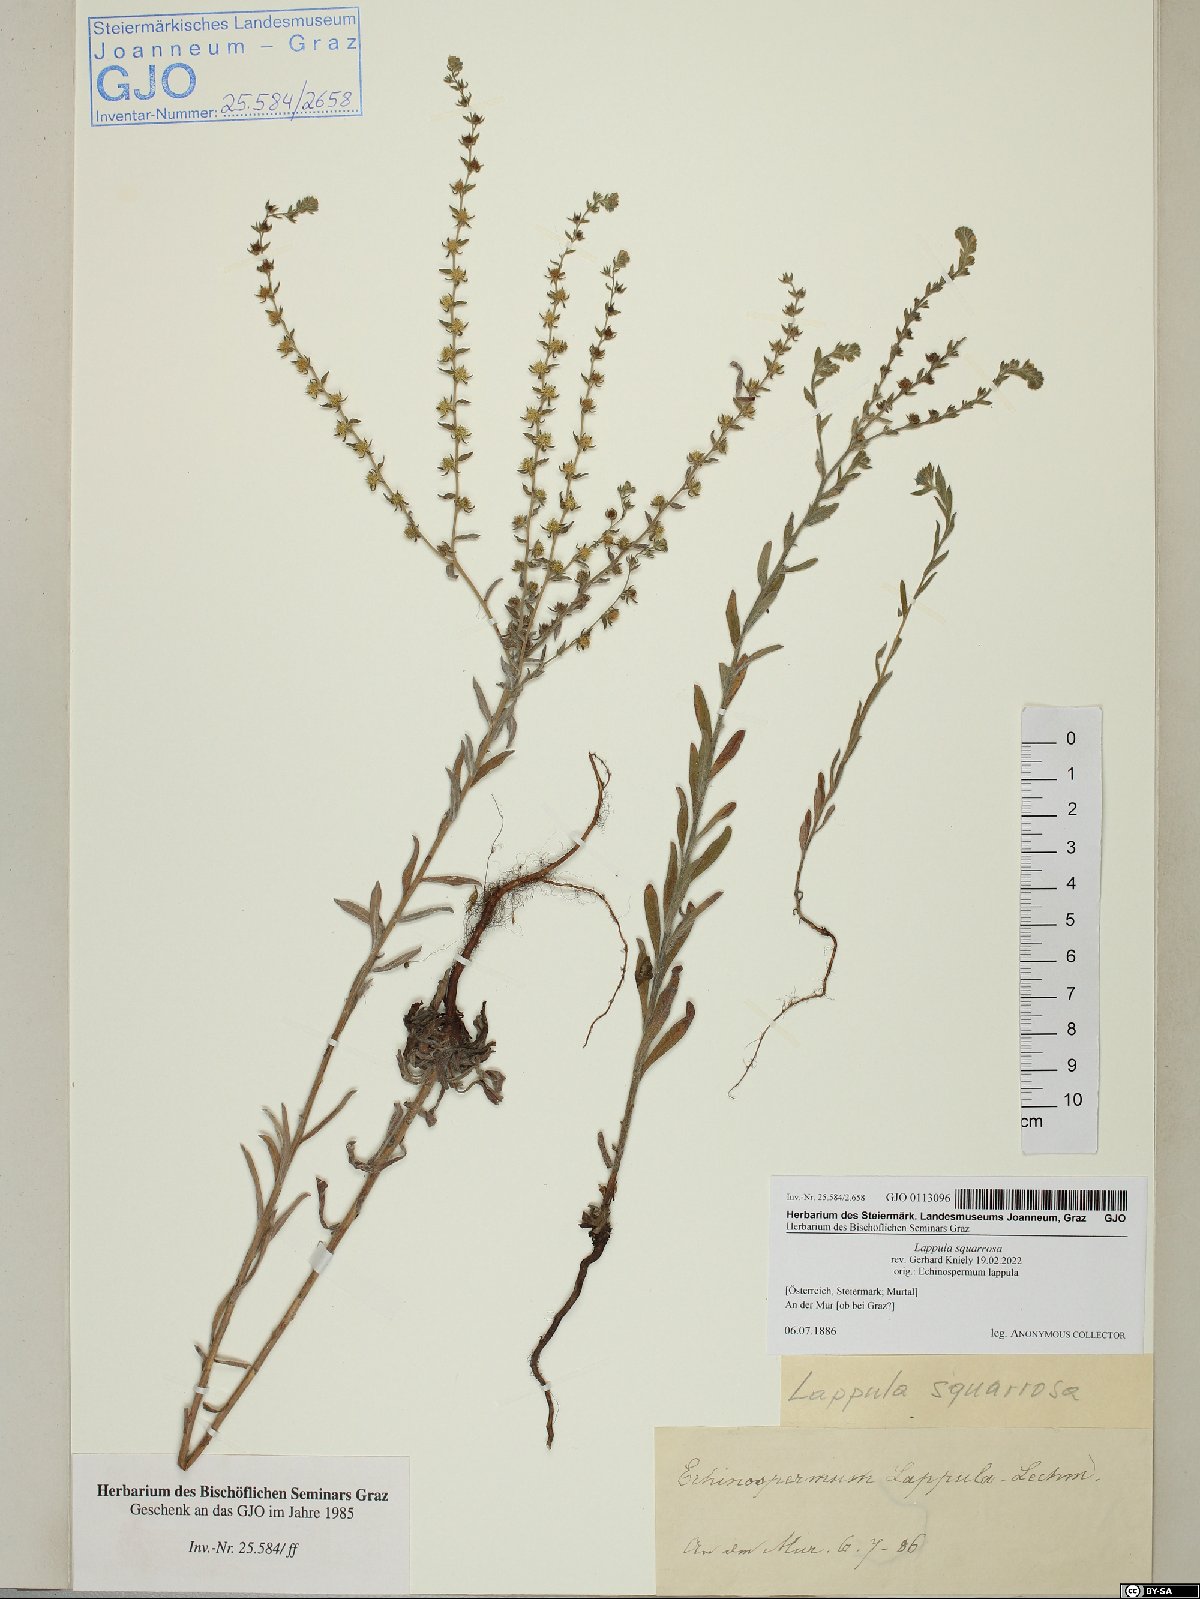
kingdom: Plantae
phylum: Tracheophyta
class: Magnoliopsida
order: Boraginales
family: Boraginaceae
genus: Lappula
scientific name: Lappula squarrosa
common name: European stickseed
